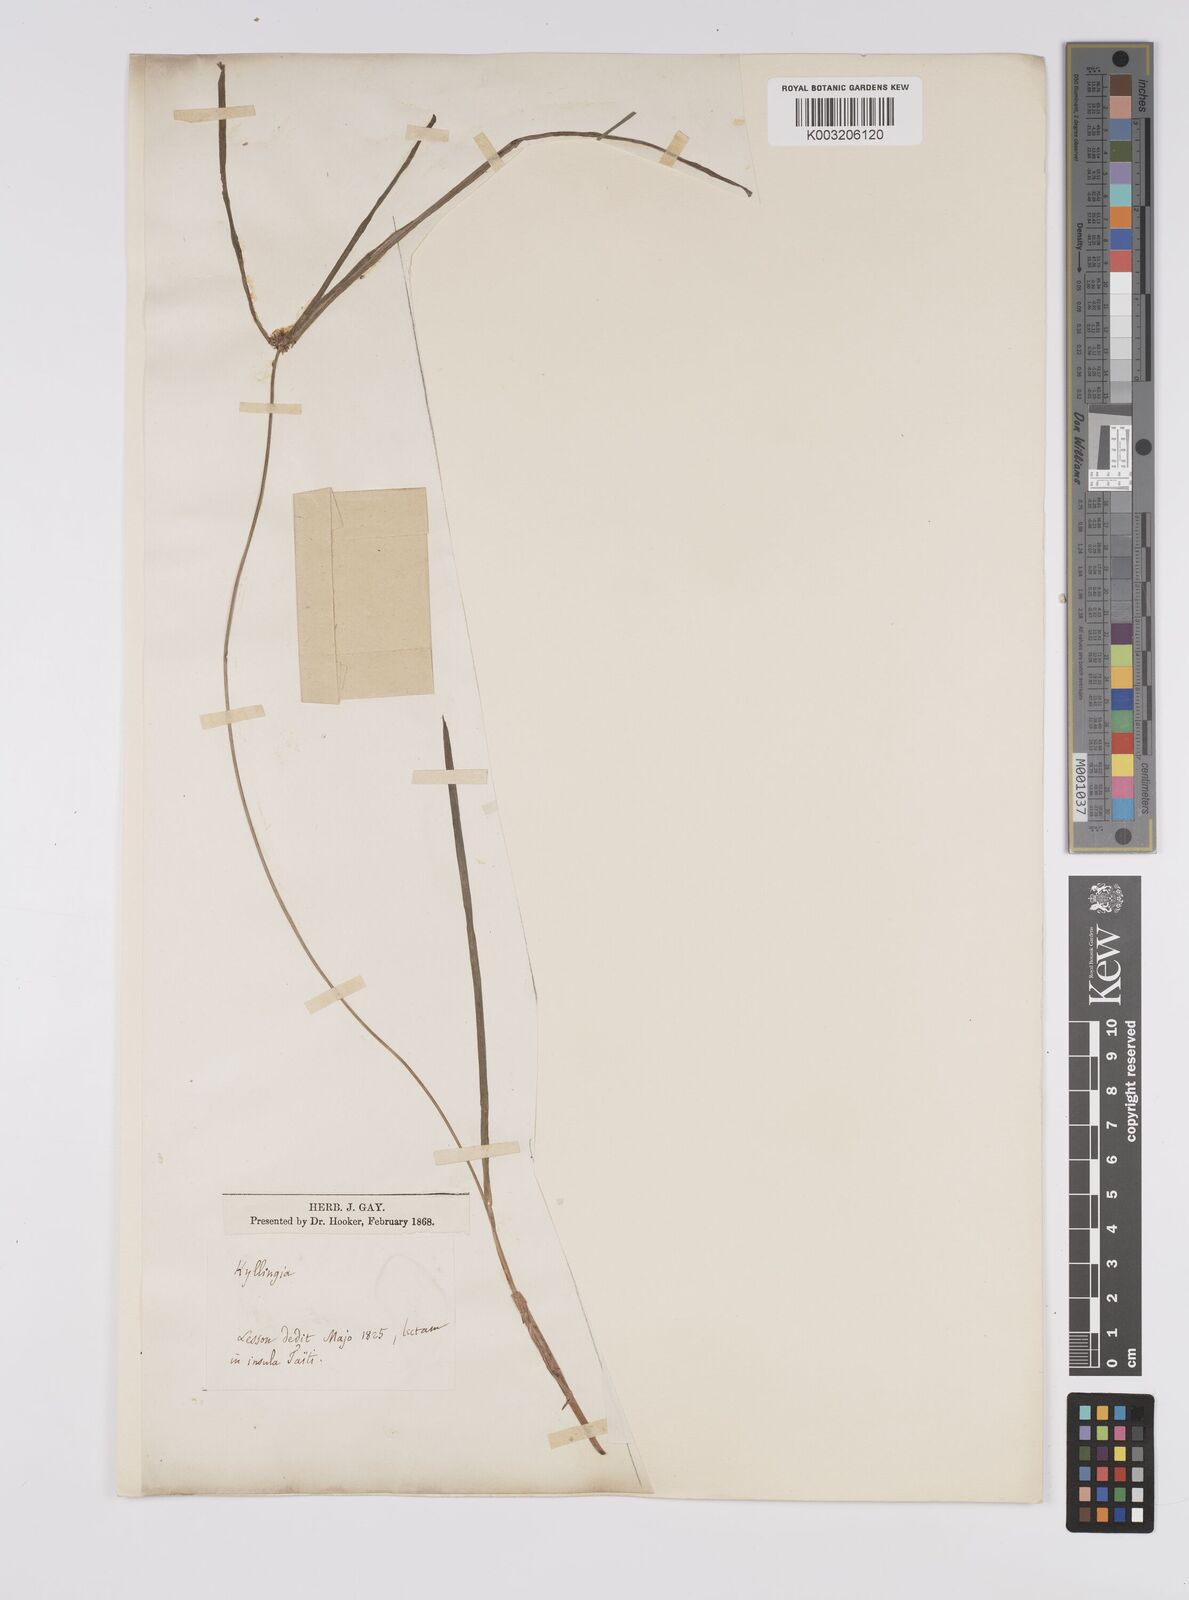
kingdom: Plantae
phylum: Tracheophyta
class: Liliopsida
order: Poales
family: Cyperaceae
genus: Cyperus
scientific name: Cyperus nemoralis
